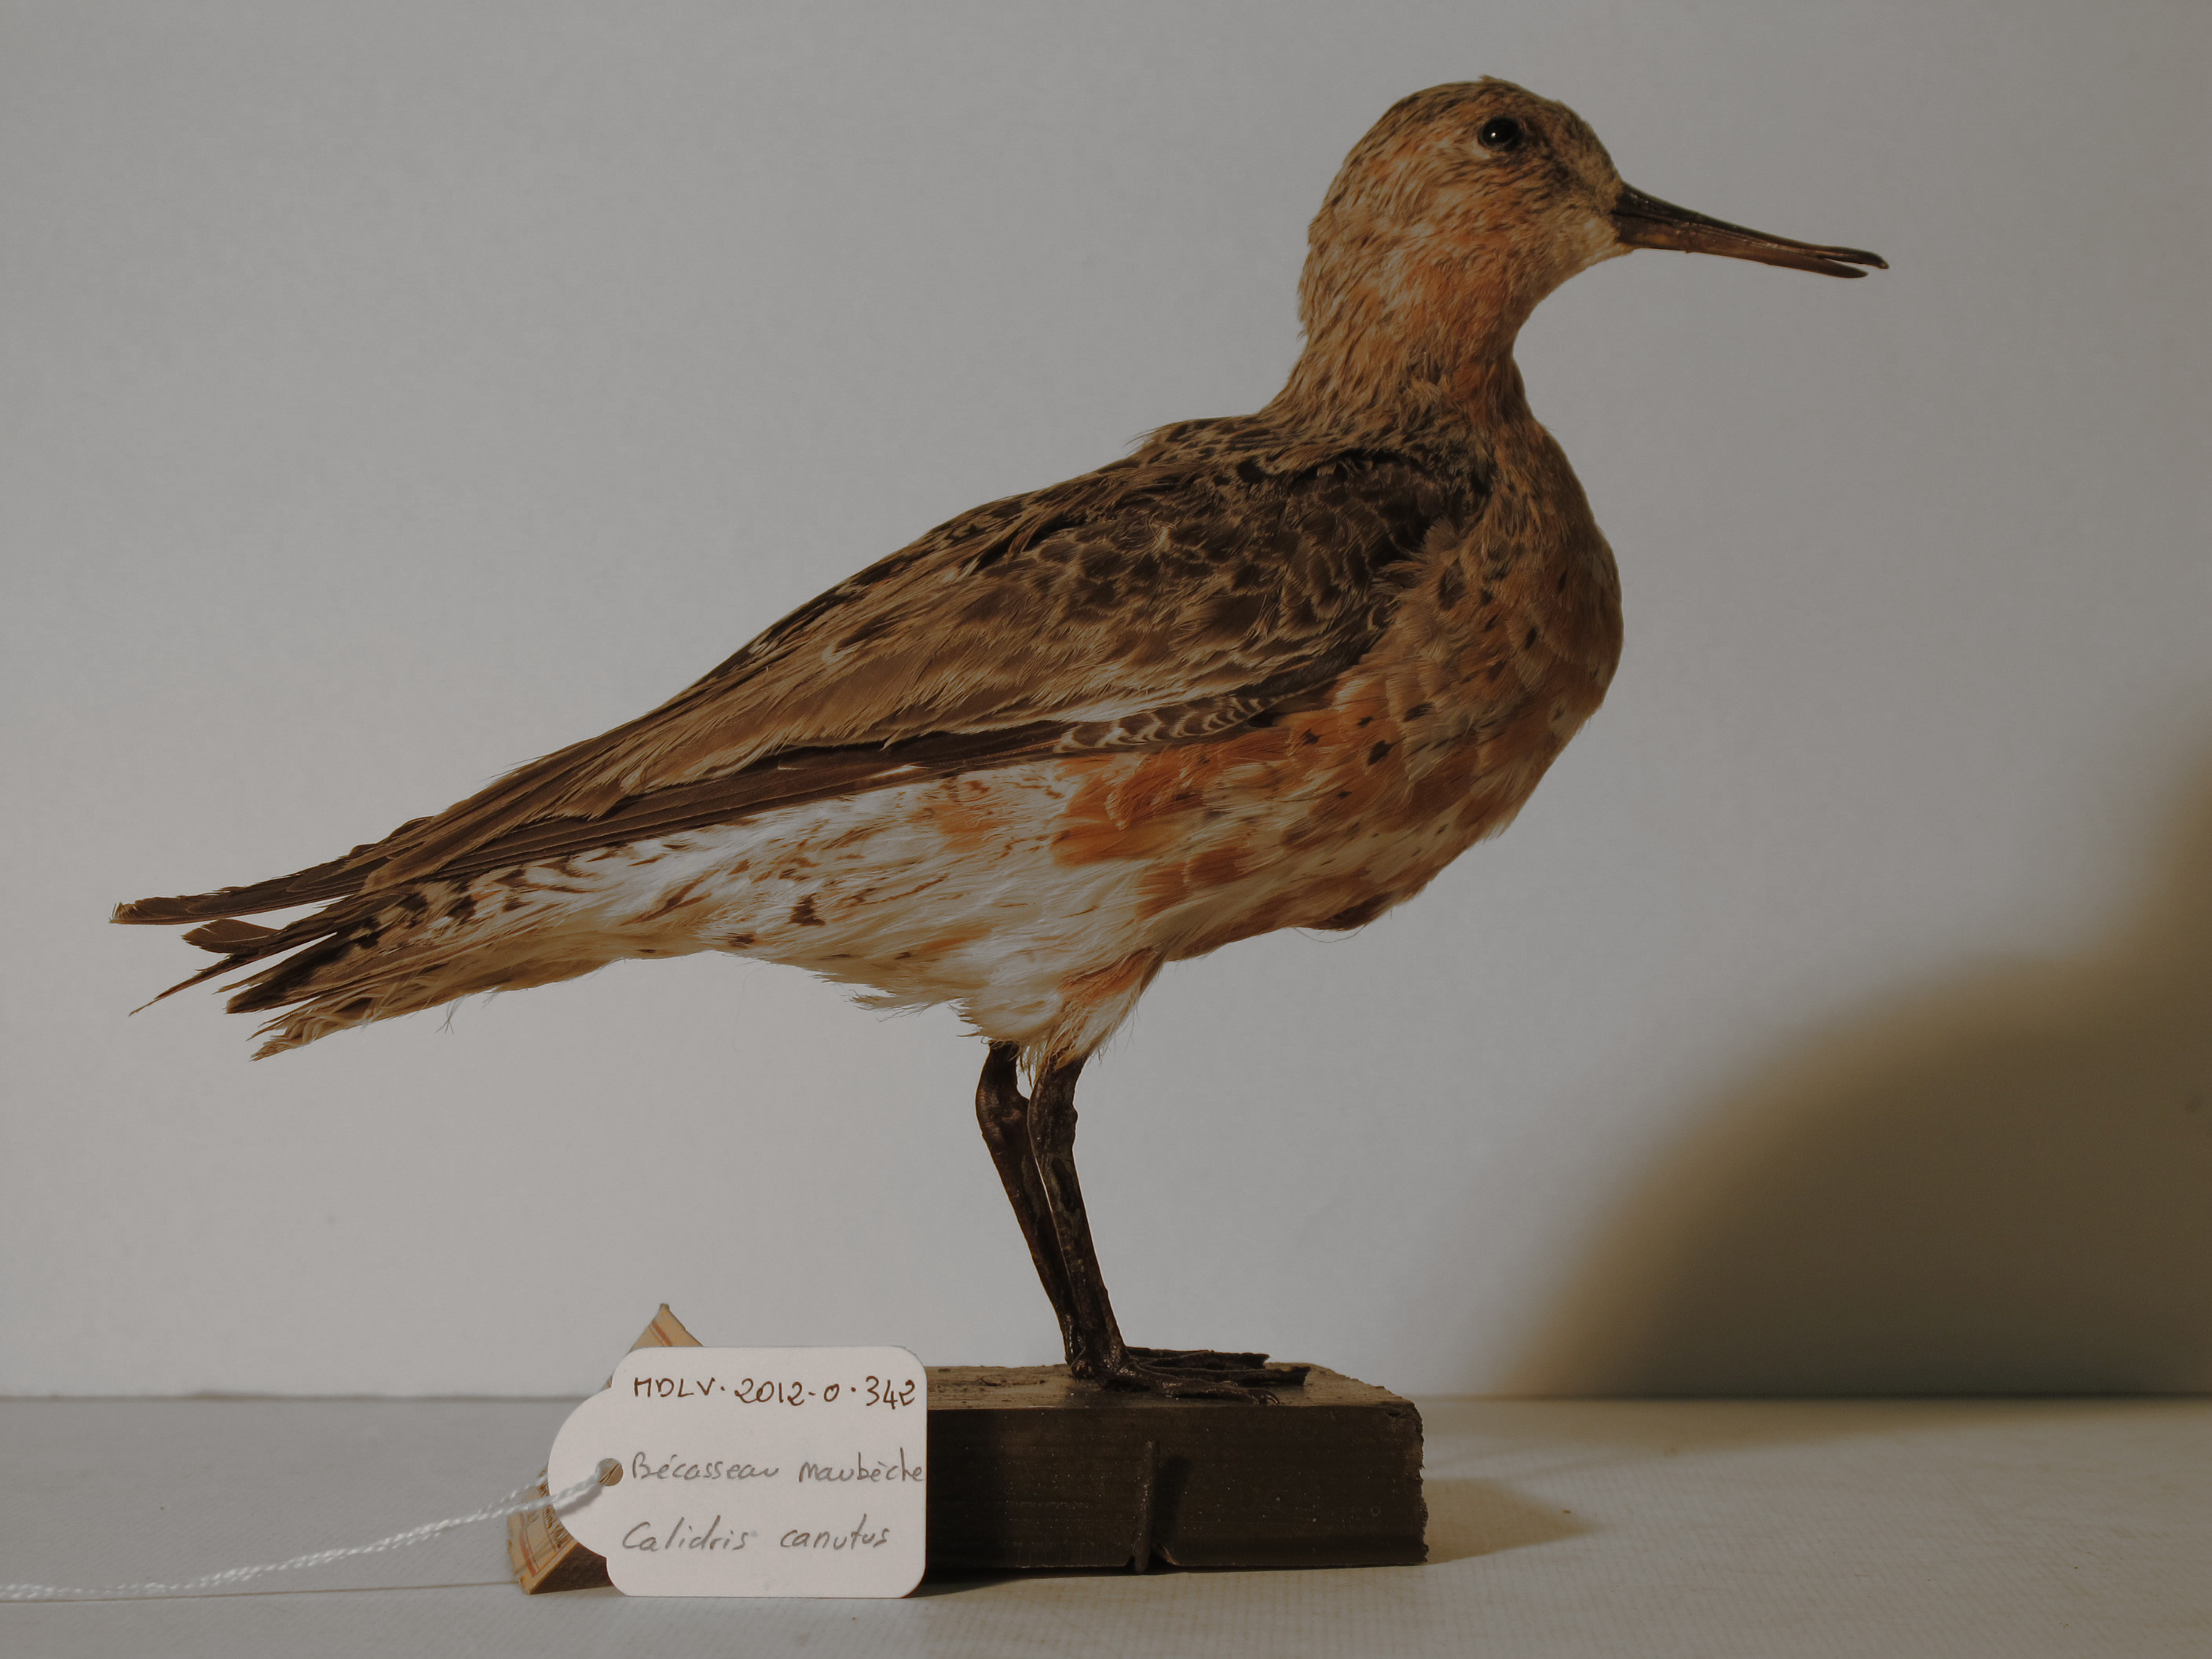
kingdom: Animalia
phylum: Chordata
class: Aves
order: Charadriiformes
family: Scolopacidae
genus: Calidris
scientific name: Calidris canutus
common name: Red Knot
